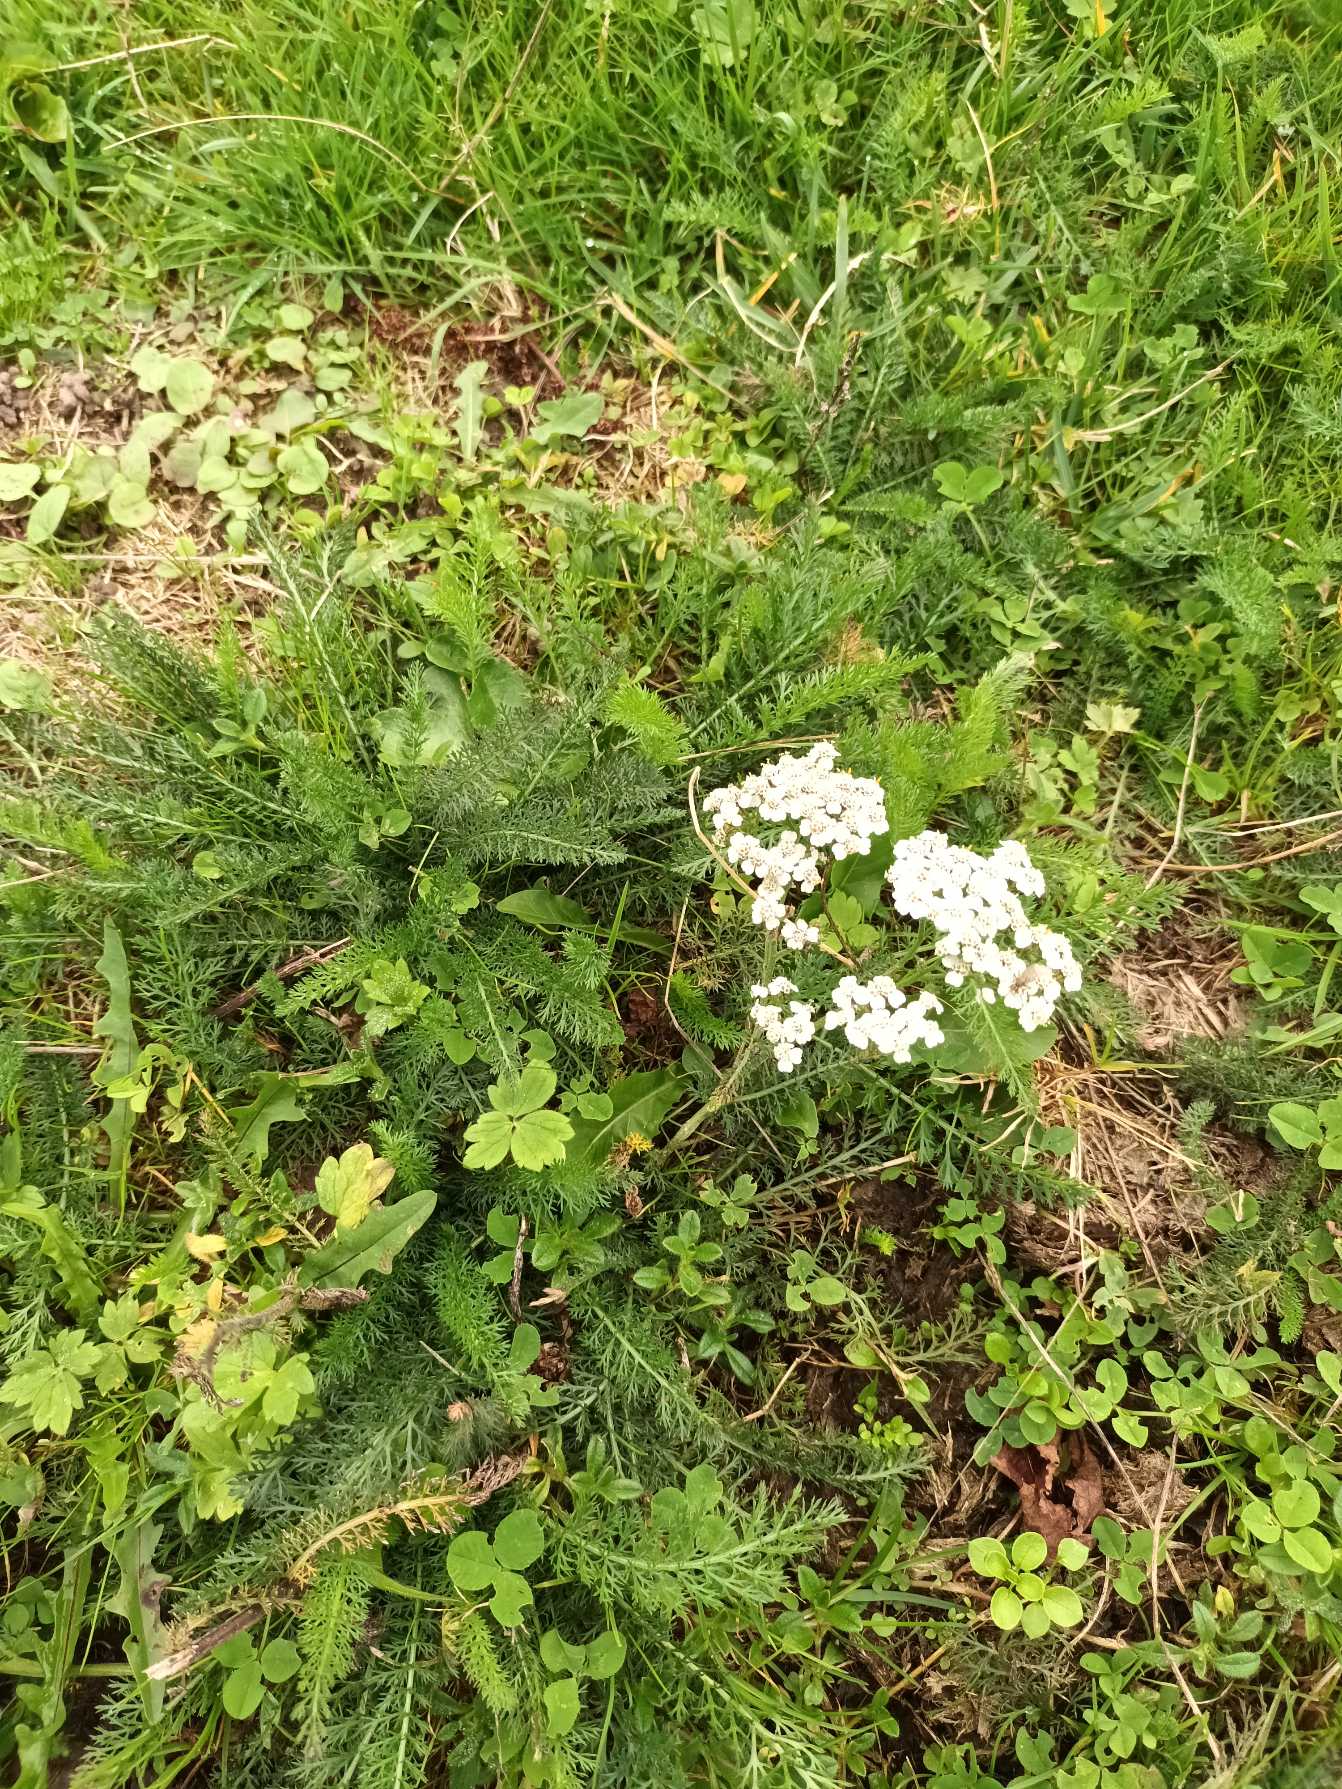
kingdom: Plantae
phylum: Tracheophyta
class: Magnoliopsida
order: Asterales
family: Asteraceae
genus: Achillea
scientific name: Achillea millefolium
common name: Almindelig røllike
